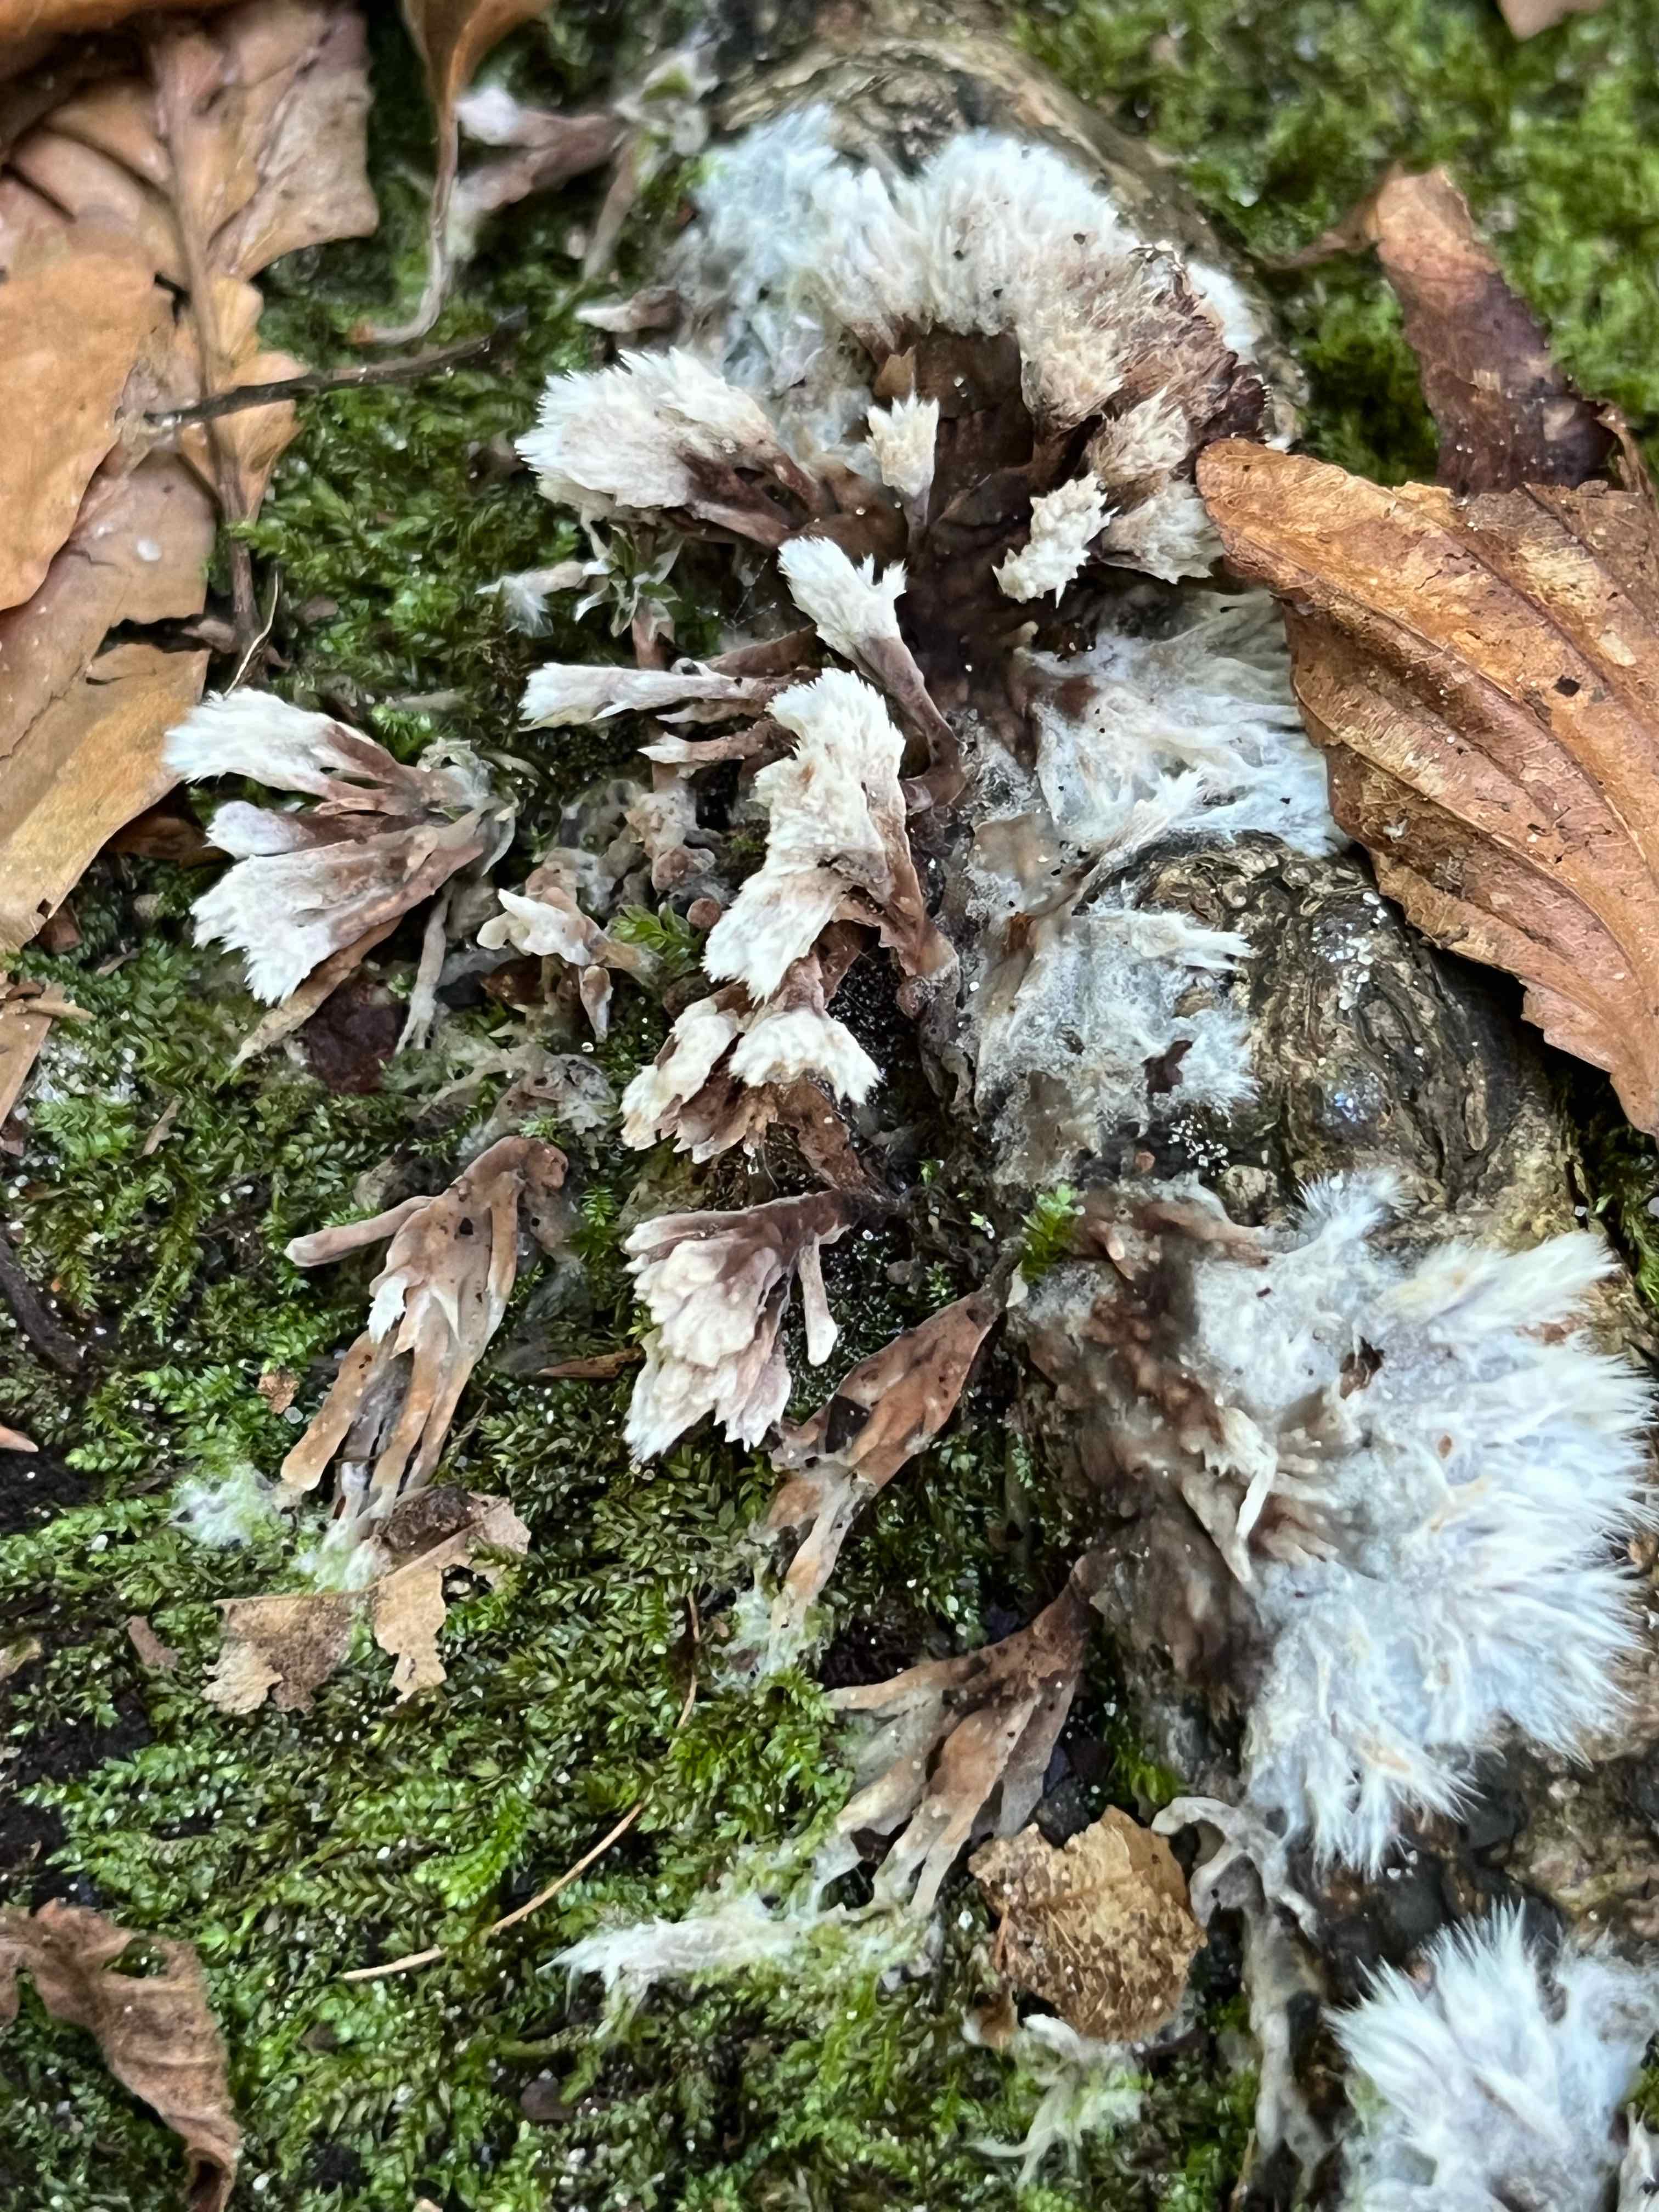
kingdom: Fungi
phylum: Basidiomycota
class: Agaricomycetes
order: Thelephorales
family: Thelephoraceae
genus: Thelephora
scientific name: Thelephora penicillata
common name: fladtrådt frynsesvamp
